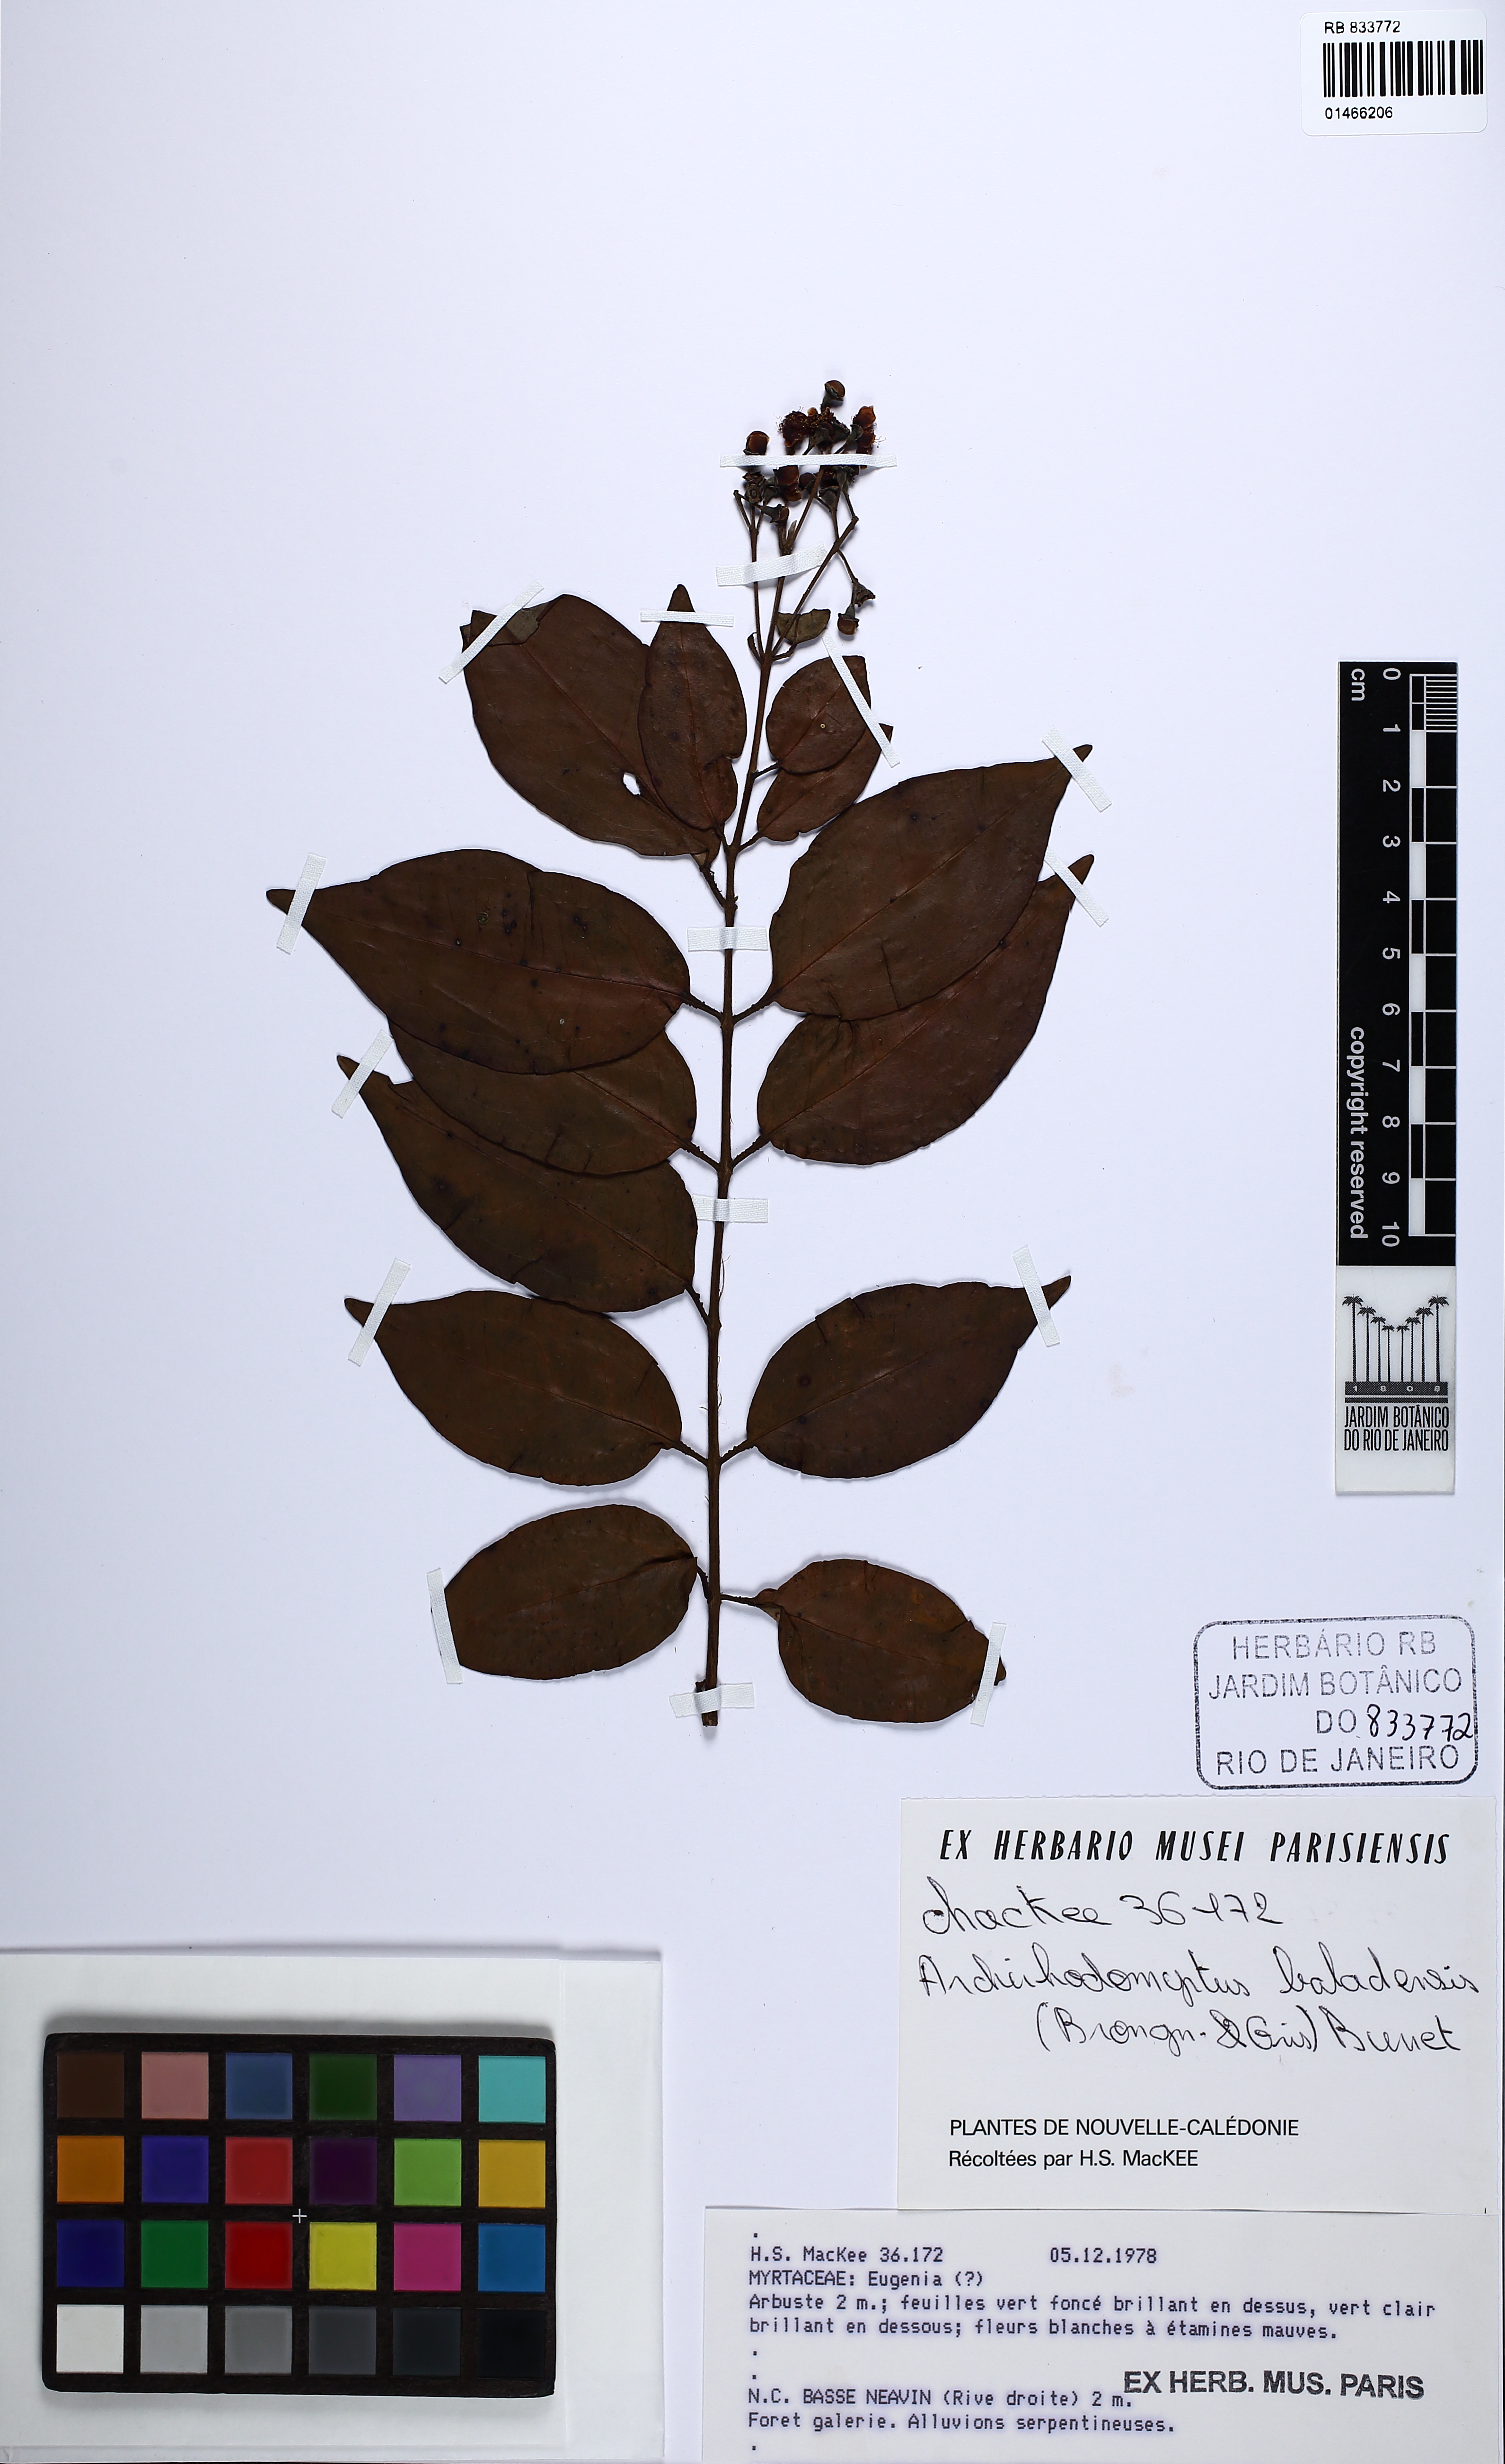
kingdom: Plantae
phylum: Tracheophyta
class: Magnoliopsida
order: Myrtales
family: Myrtaceae
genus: Archirhodomyrtus
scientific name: Archirhodomyrtus baladensis
